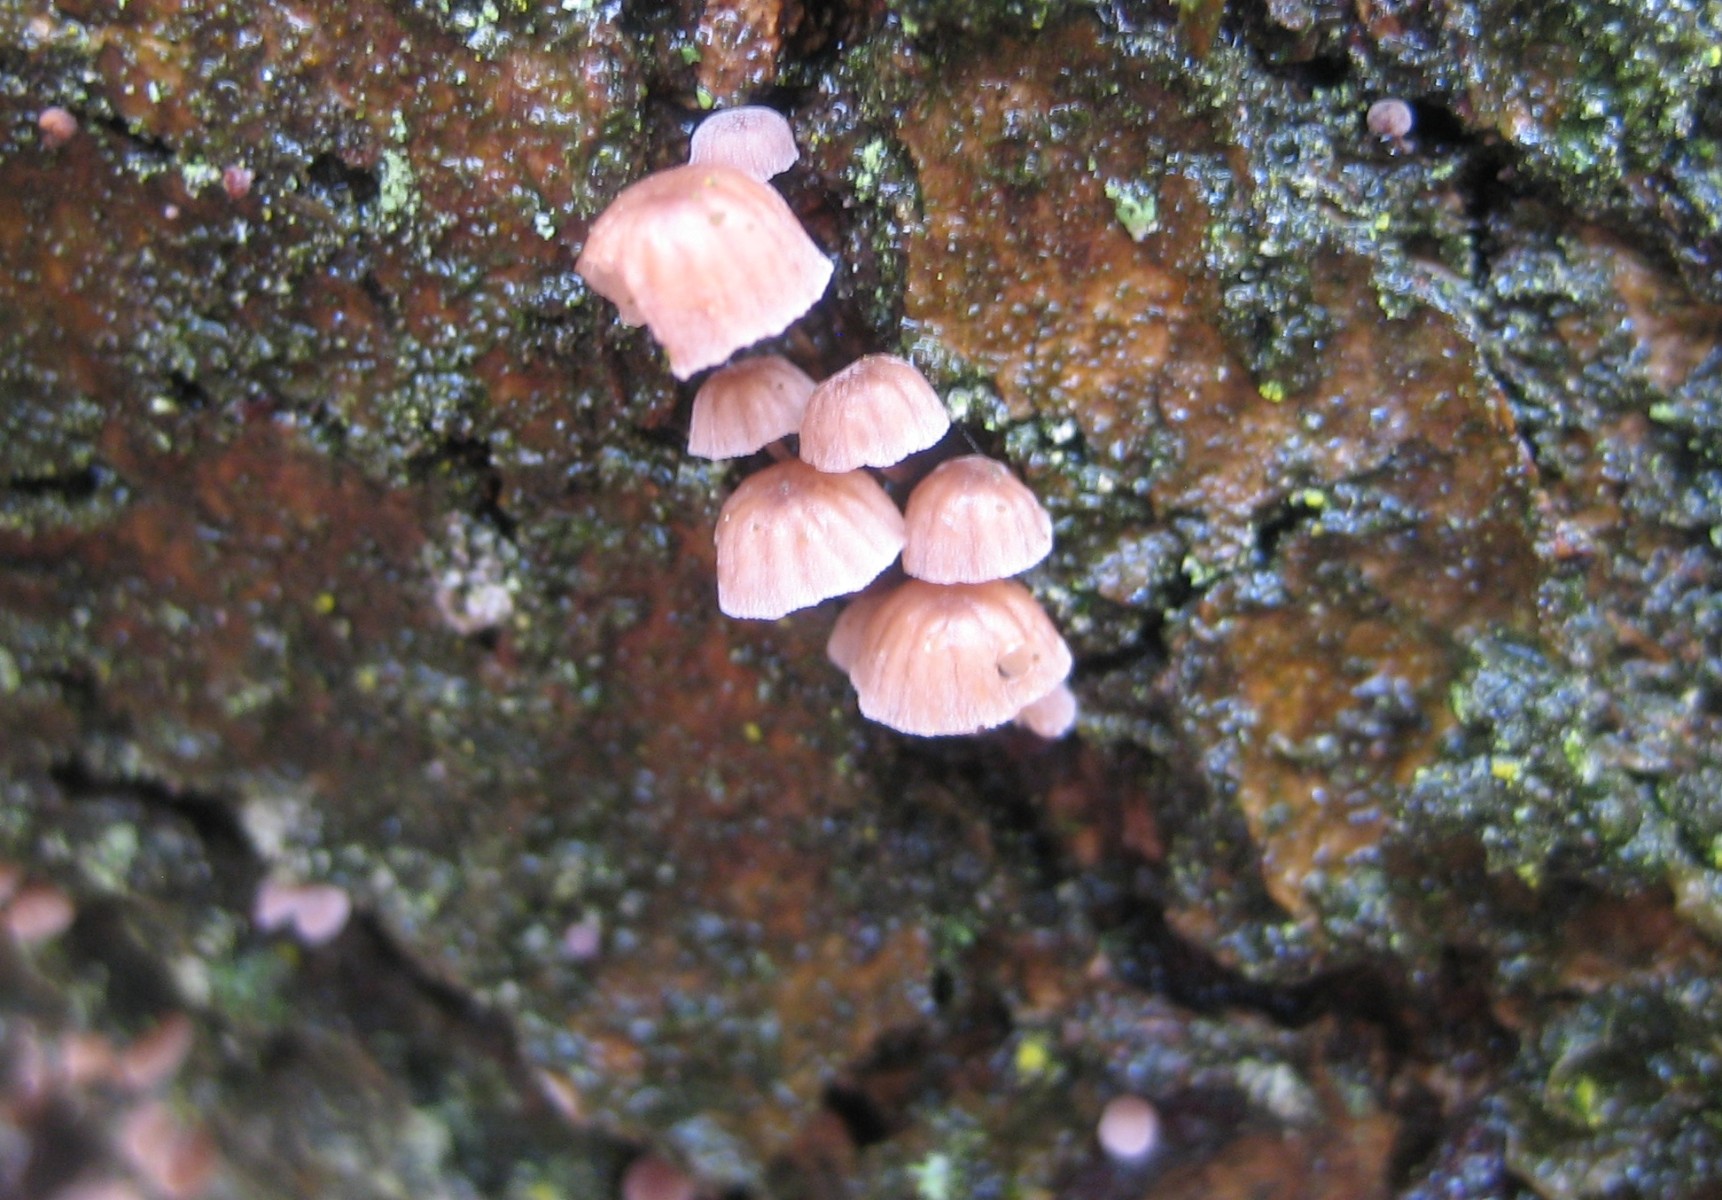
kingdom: Fungi
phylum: Basidiomycota
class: Agaricomycetes
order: Agaricales
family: Mycenaceae
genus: Mycena
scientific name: Mycena meliigena
